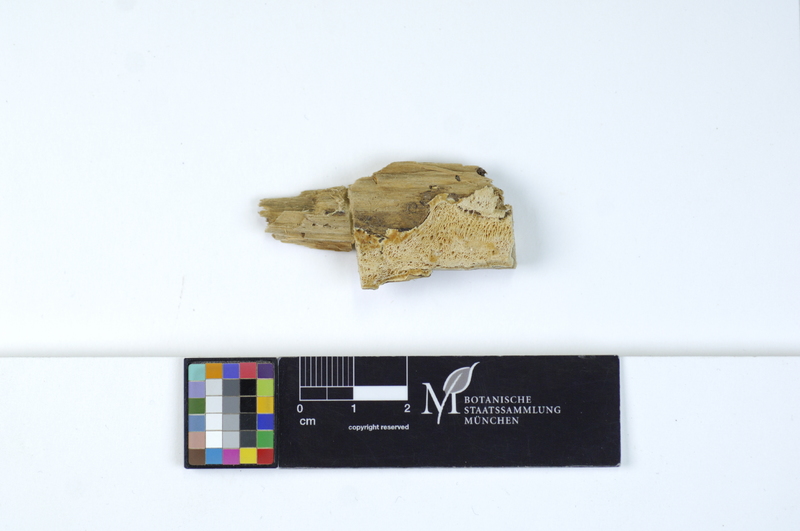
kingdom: Plantae
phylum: Tracheophyta
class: Pinopsida
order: Pinales
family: Pinaceae
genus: Picea
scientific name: Picea
